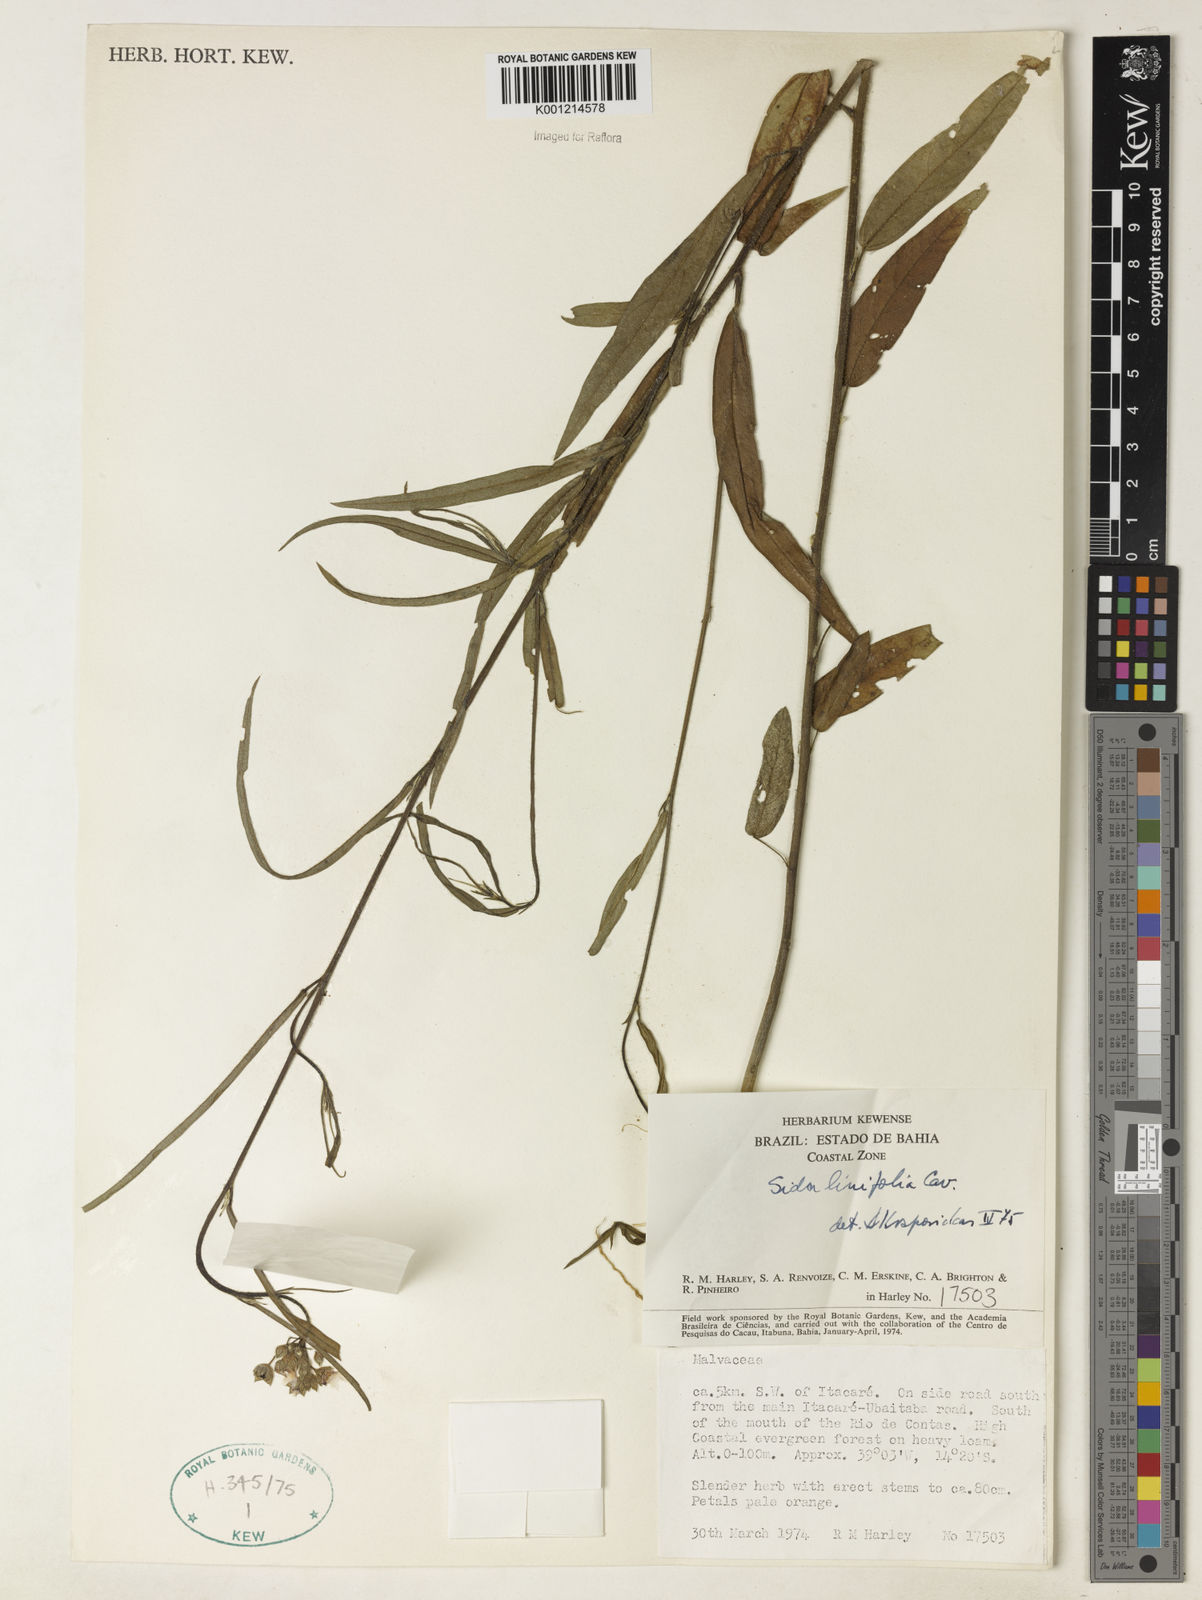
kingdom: Plantae
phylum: Tracheophyta
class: Magnoliopsida
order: Malvales
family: Malvaceae
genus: Sida
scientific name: Sida linifolia
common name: Flaxleaf fanpetals
